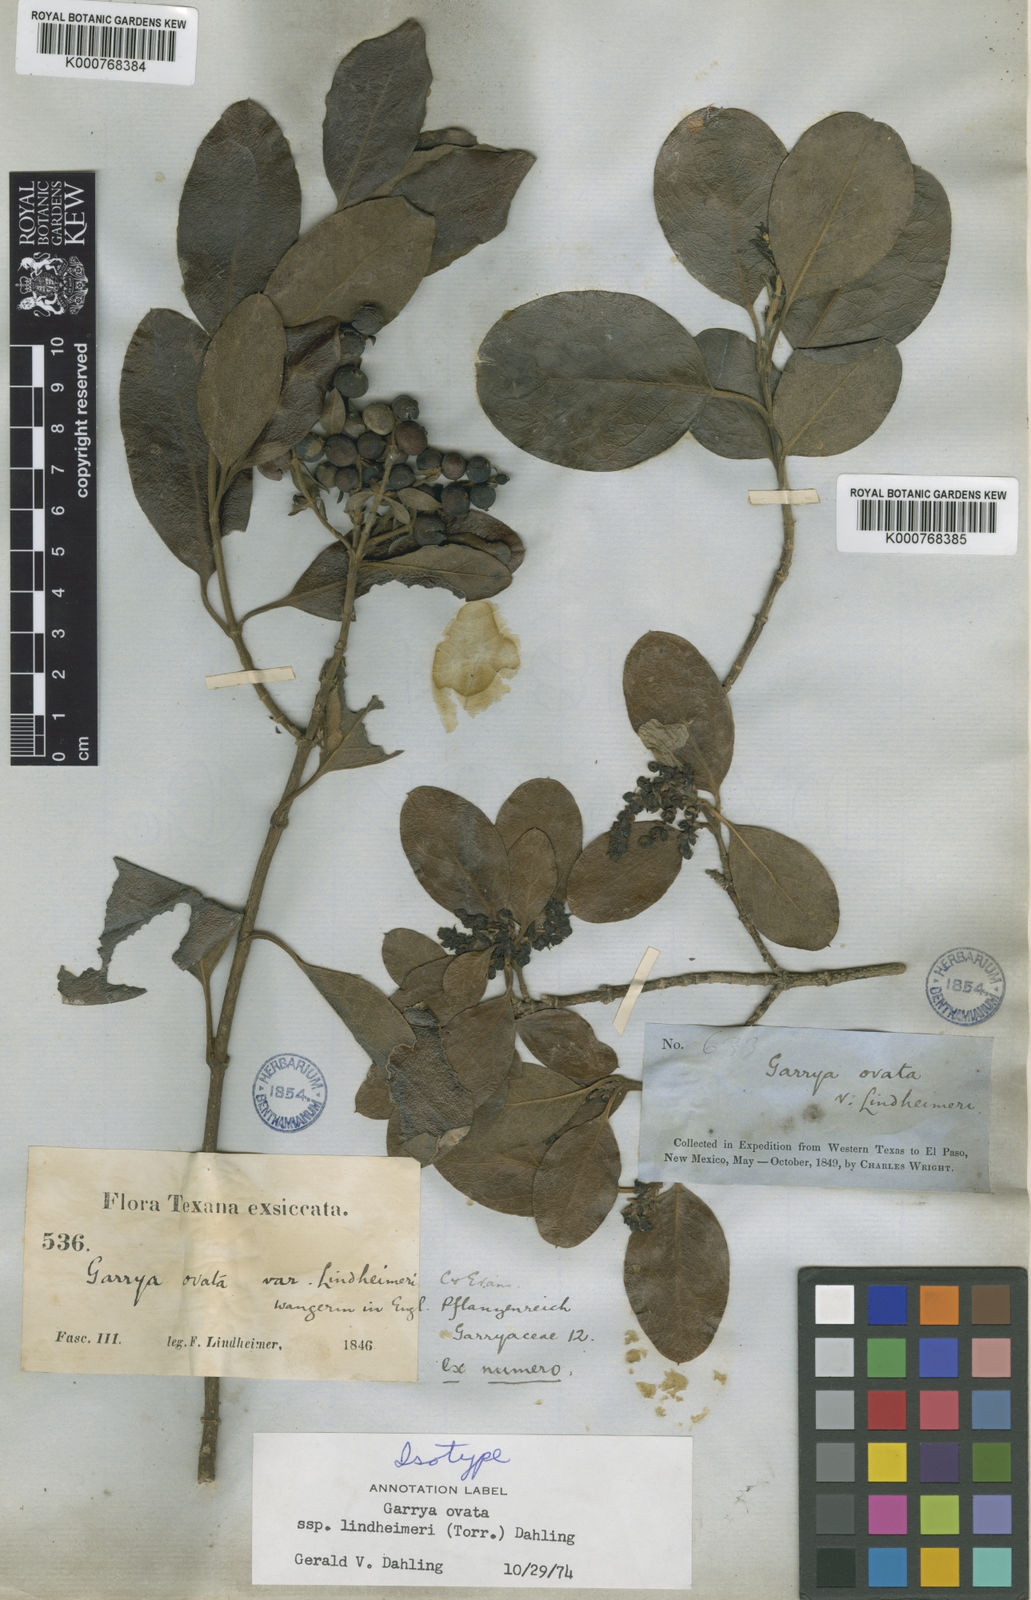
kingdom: Plantae
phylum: Tracheophyta
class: Magnoliopsida
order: Garryales
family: Garryaceae
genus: Garrya
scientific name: Garrya lindheimeri
